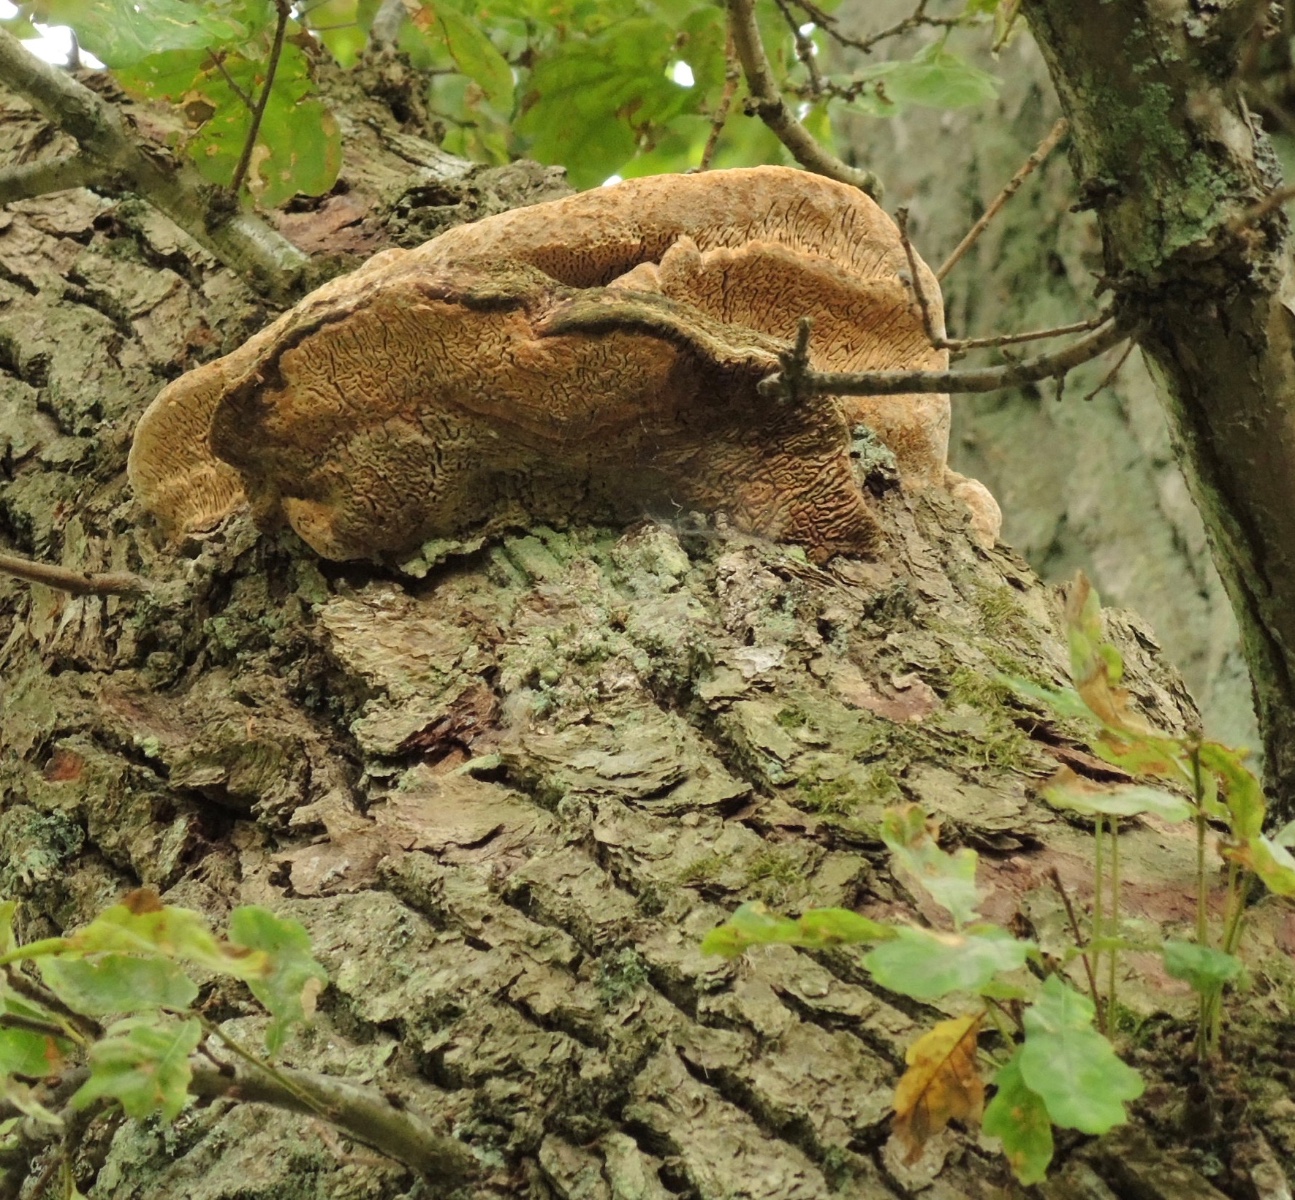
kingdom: Fungi
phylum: Basidiomycota
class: Agaricomycetes
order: Polyporales
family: Fomitopsidaceae
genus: Daedalea
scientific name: Daedalea quercina
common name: ege-labyrintsvamp
